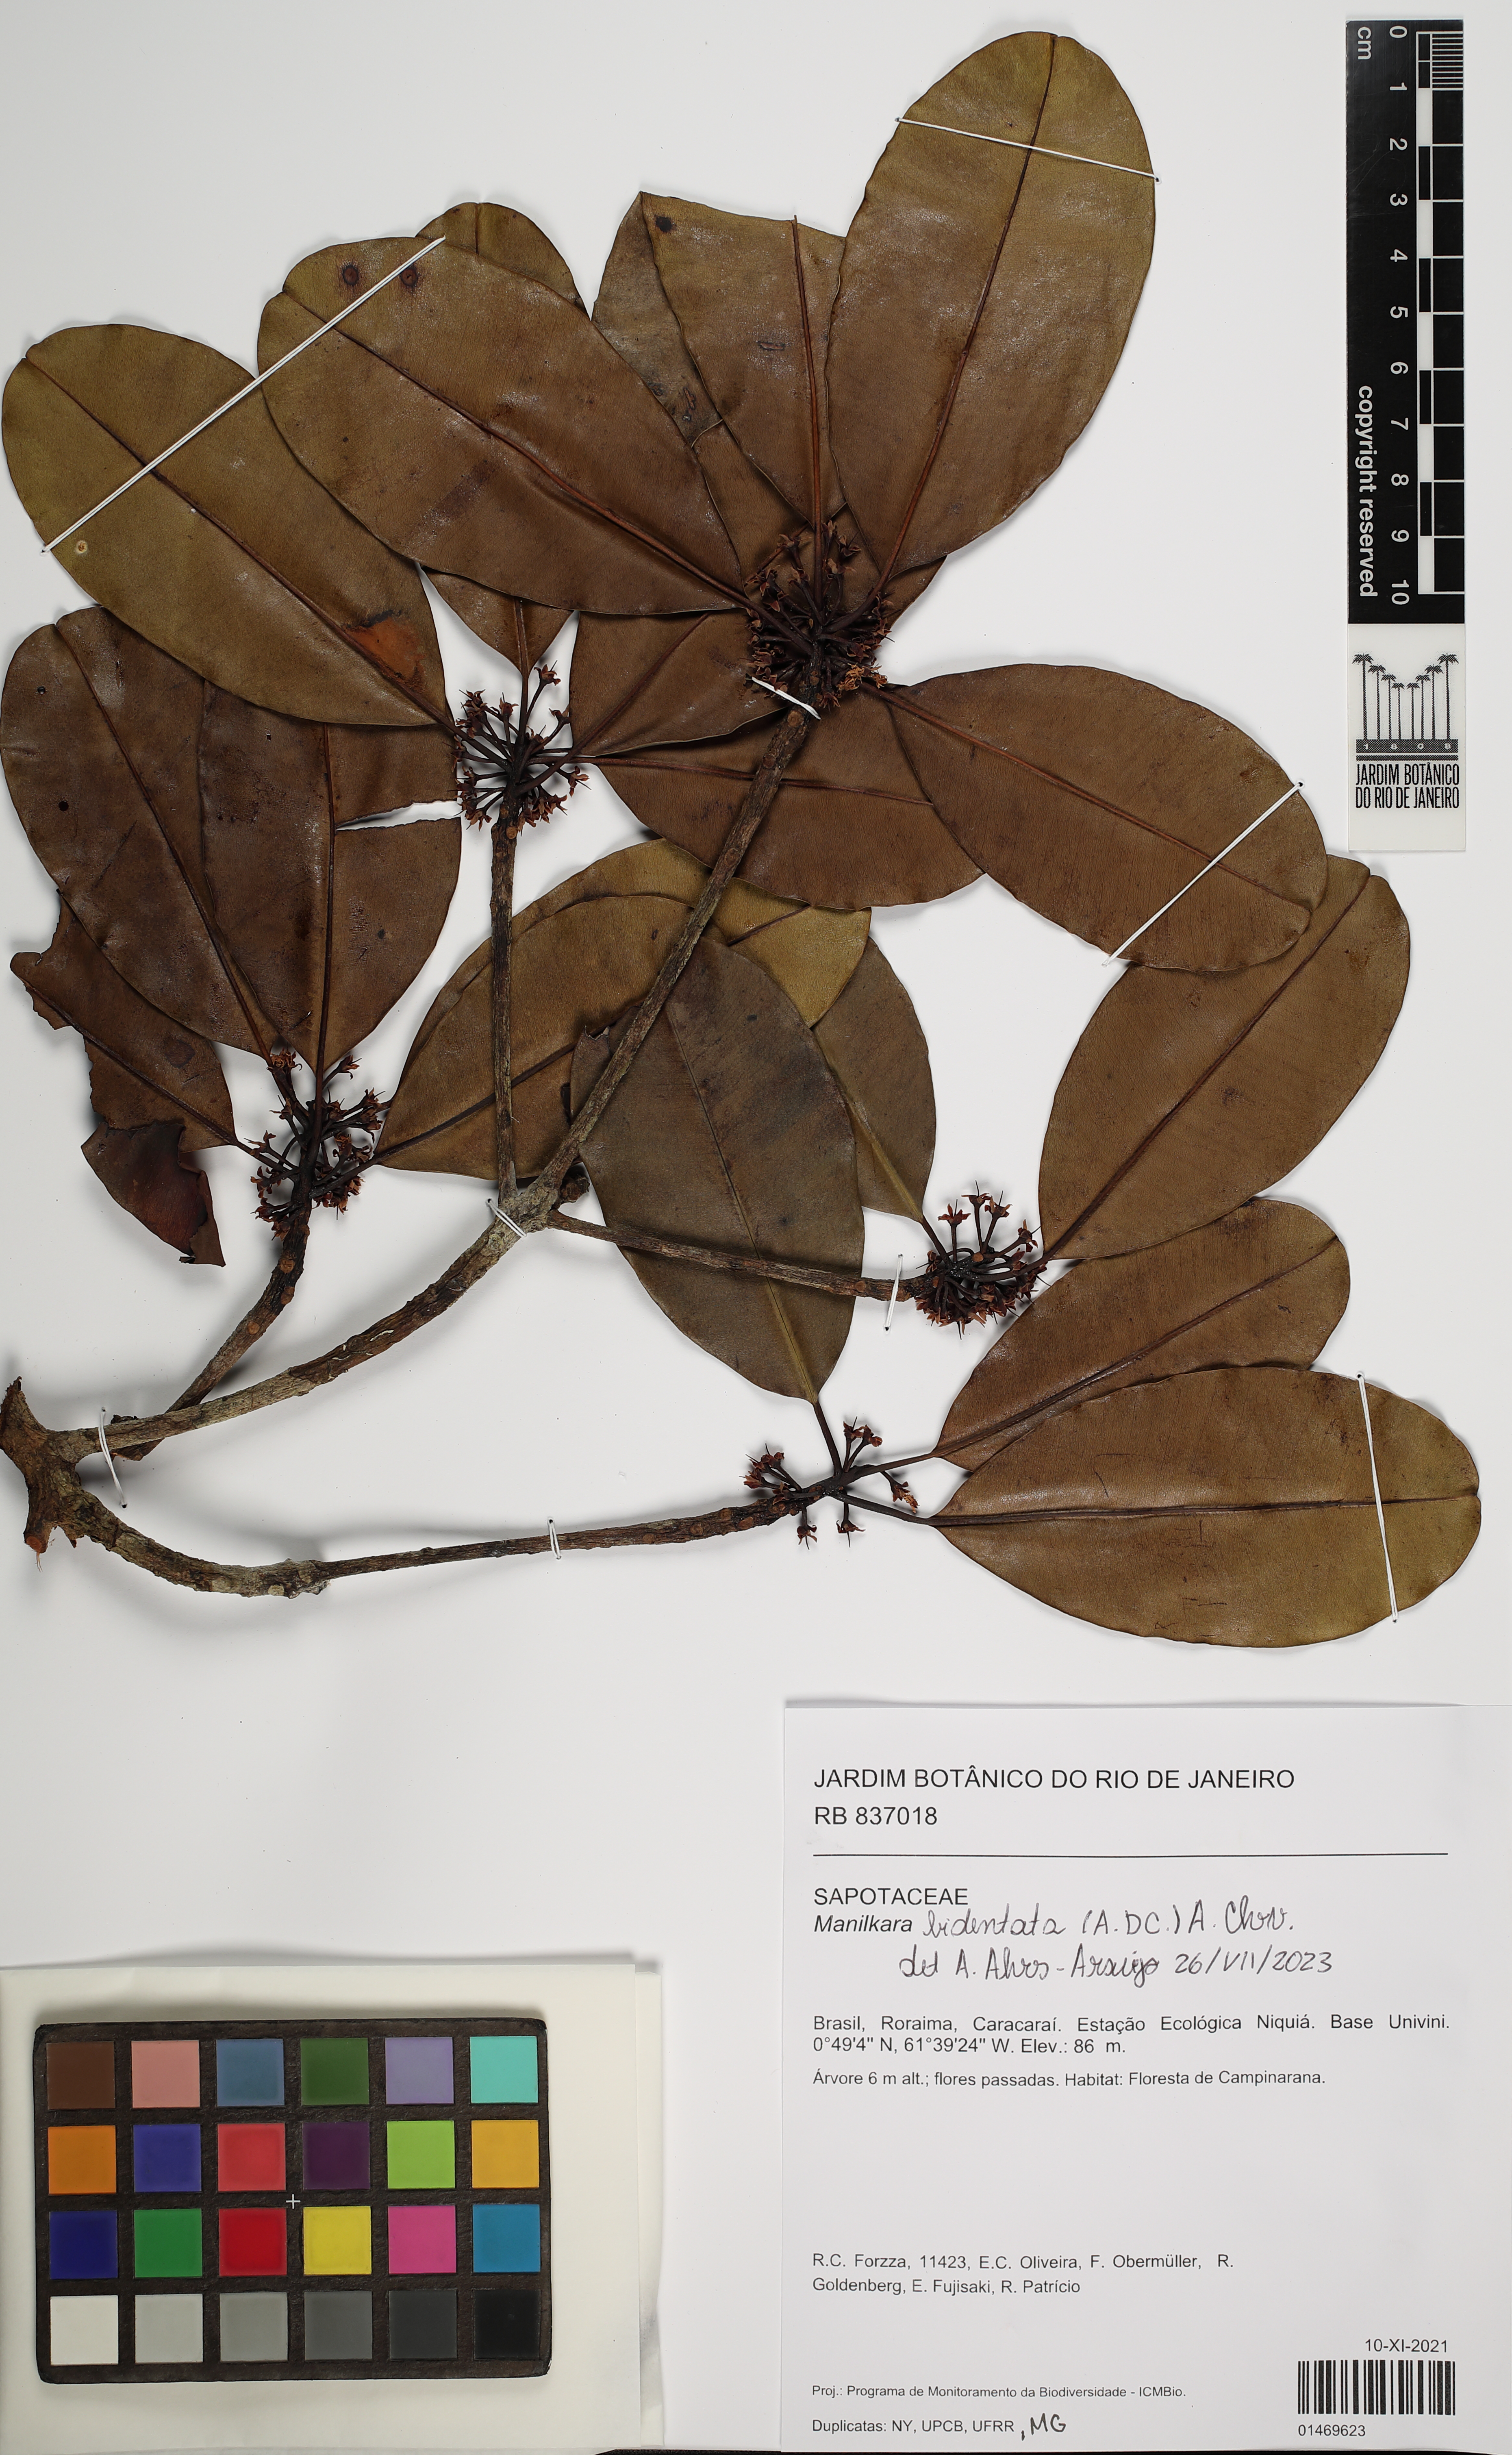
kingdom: Plantae
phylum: Tracheophyta
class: Magnoliopsida
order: Ericales
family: Sapotaceae
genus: Manilkara
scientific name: Manilkara bidentata
